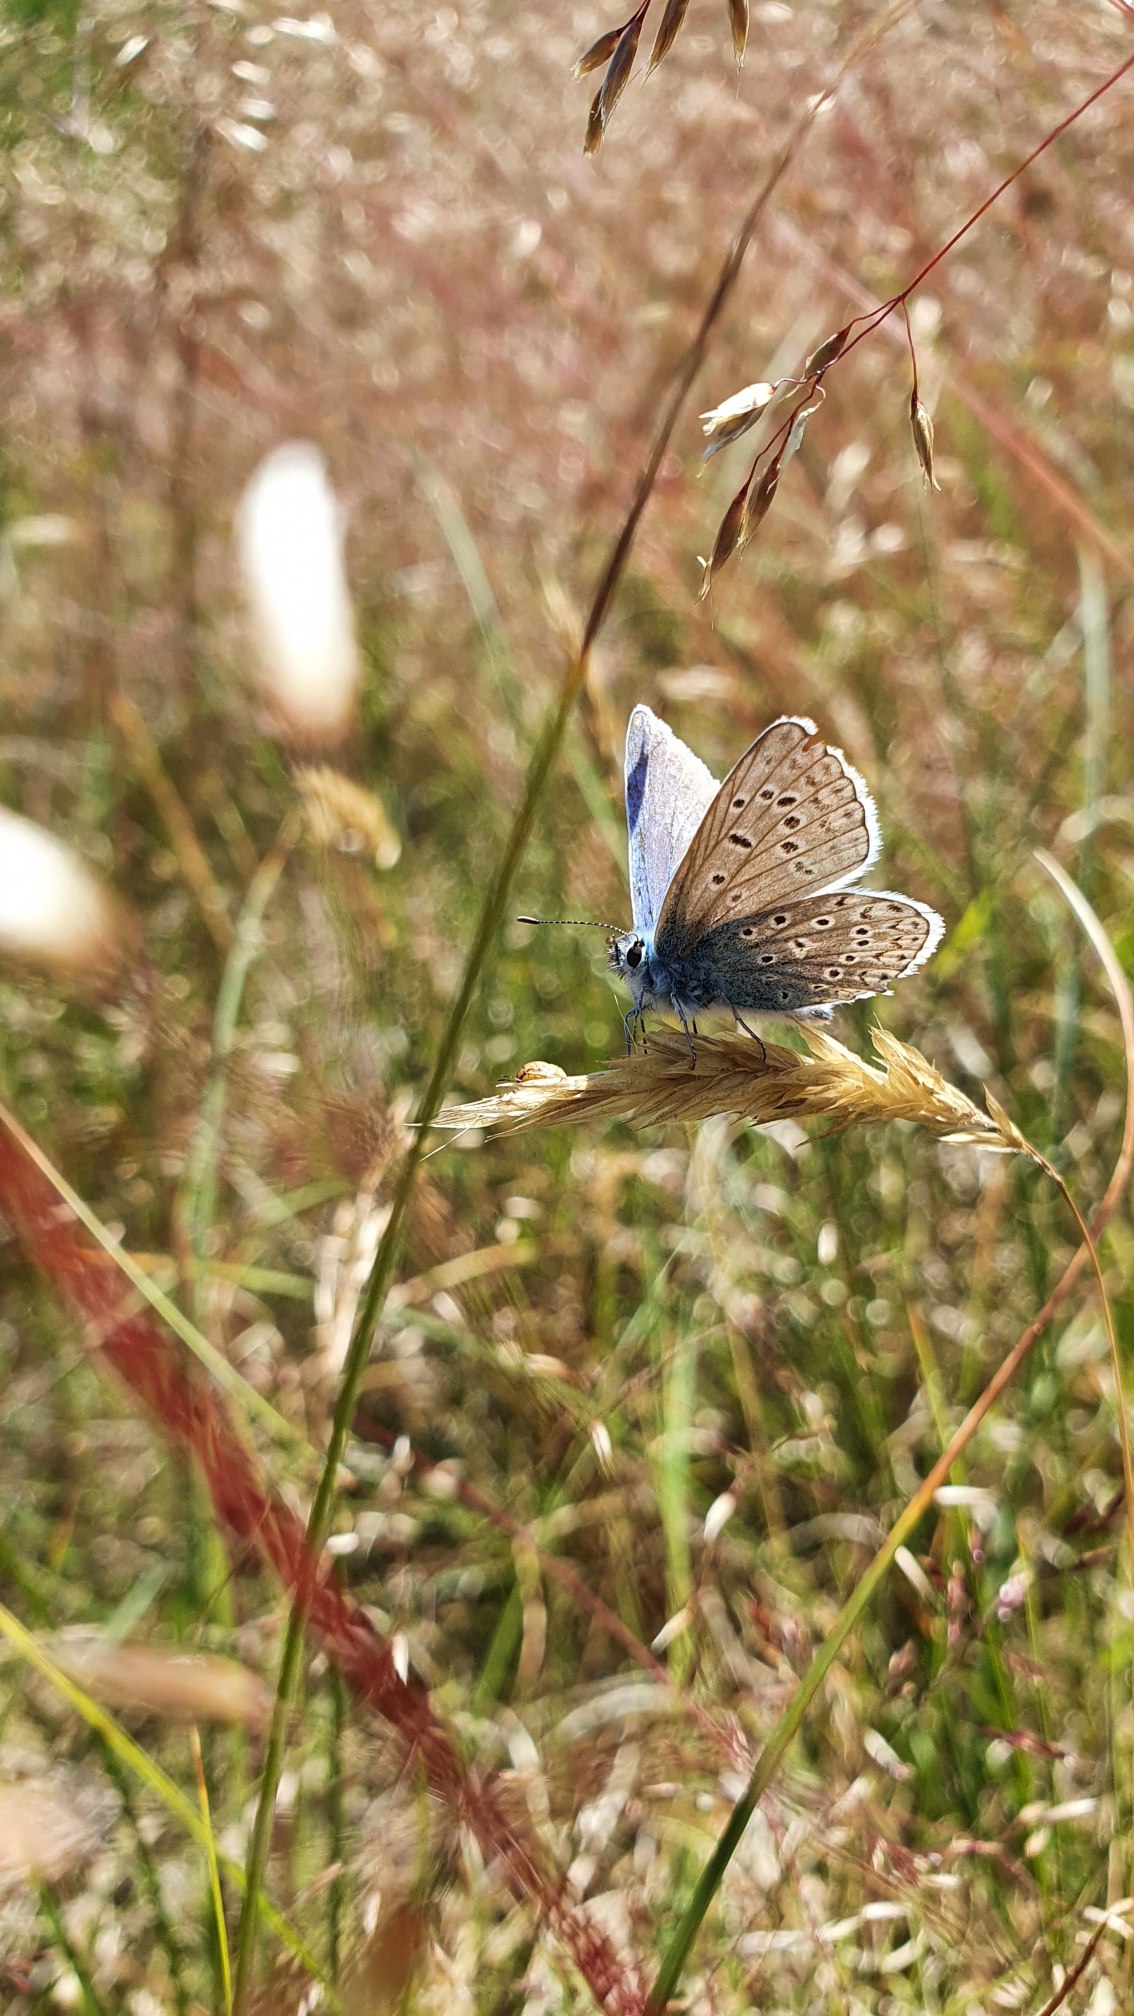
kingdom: Animalia
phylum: Arthropoda
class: Insecta
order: Lepidoptera
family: Lycaenidae
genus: Polyommatus
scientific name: Polyommatus icarus
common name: Almindelig blåfugl
